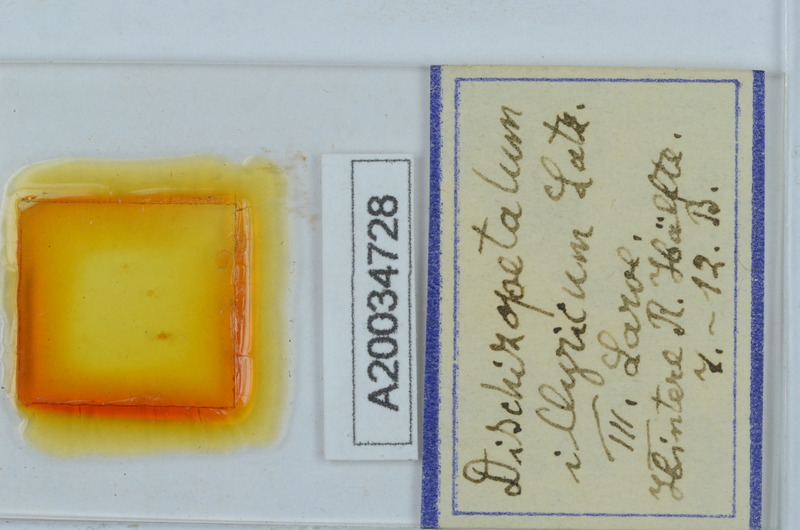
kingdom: Animalia
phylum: Arthropoda
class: Diplopoda
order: Callipodida
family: Schizopetalidae
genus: Dischizopetalum
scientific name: Dischizopetalum illyricum
